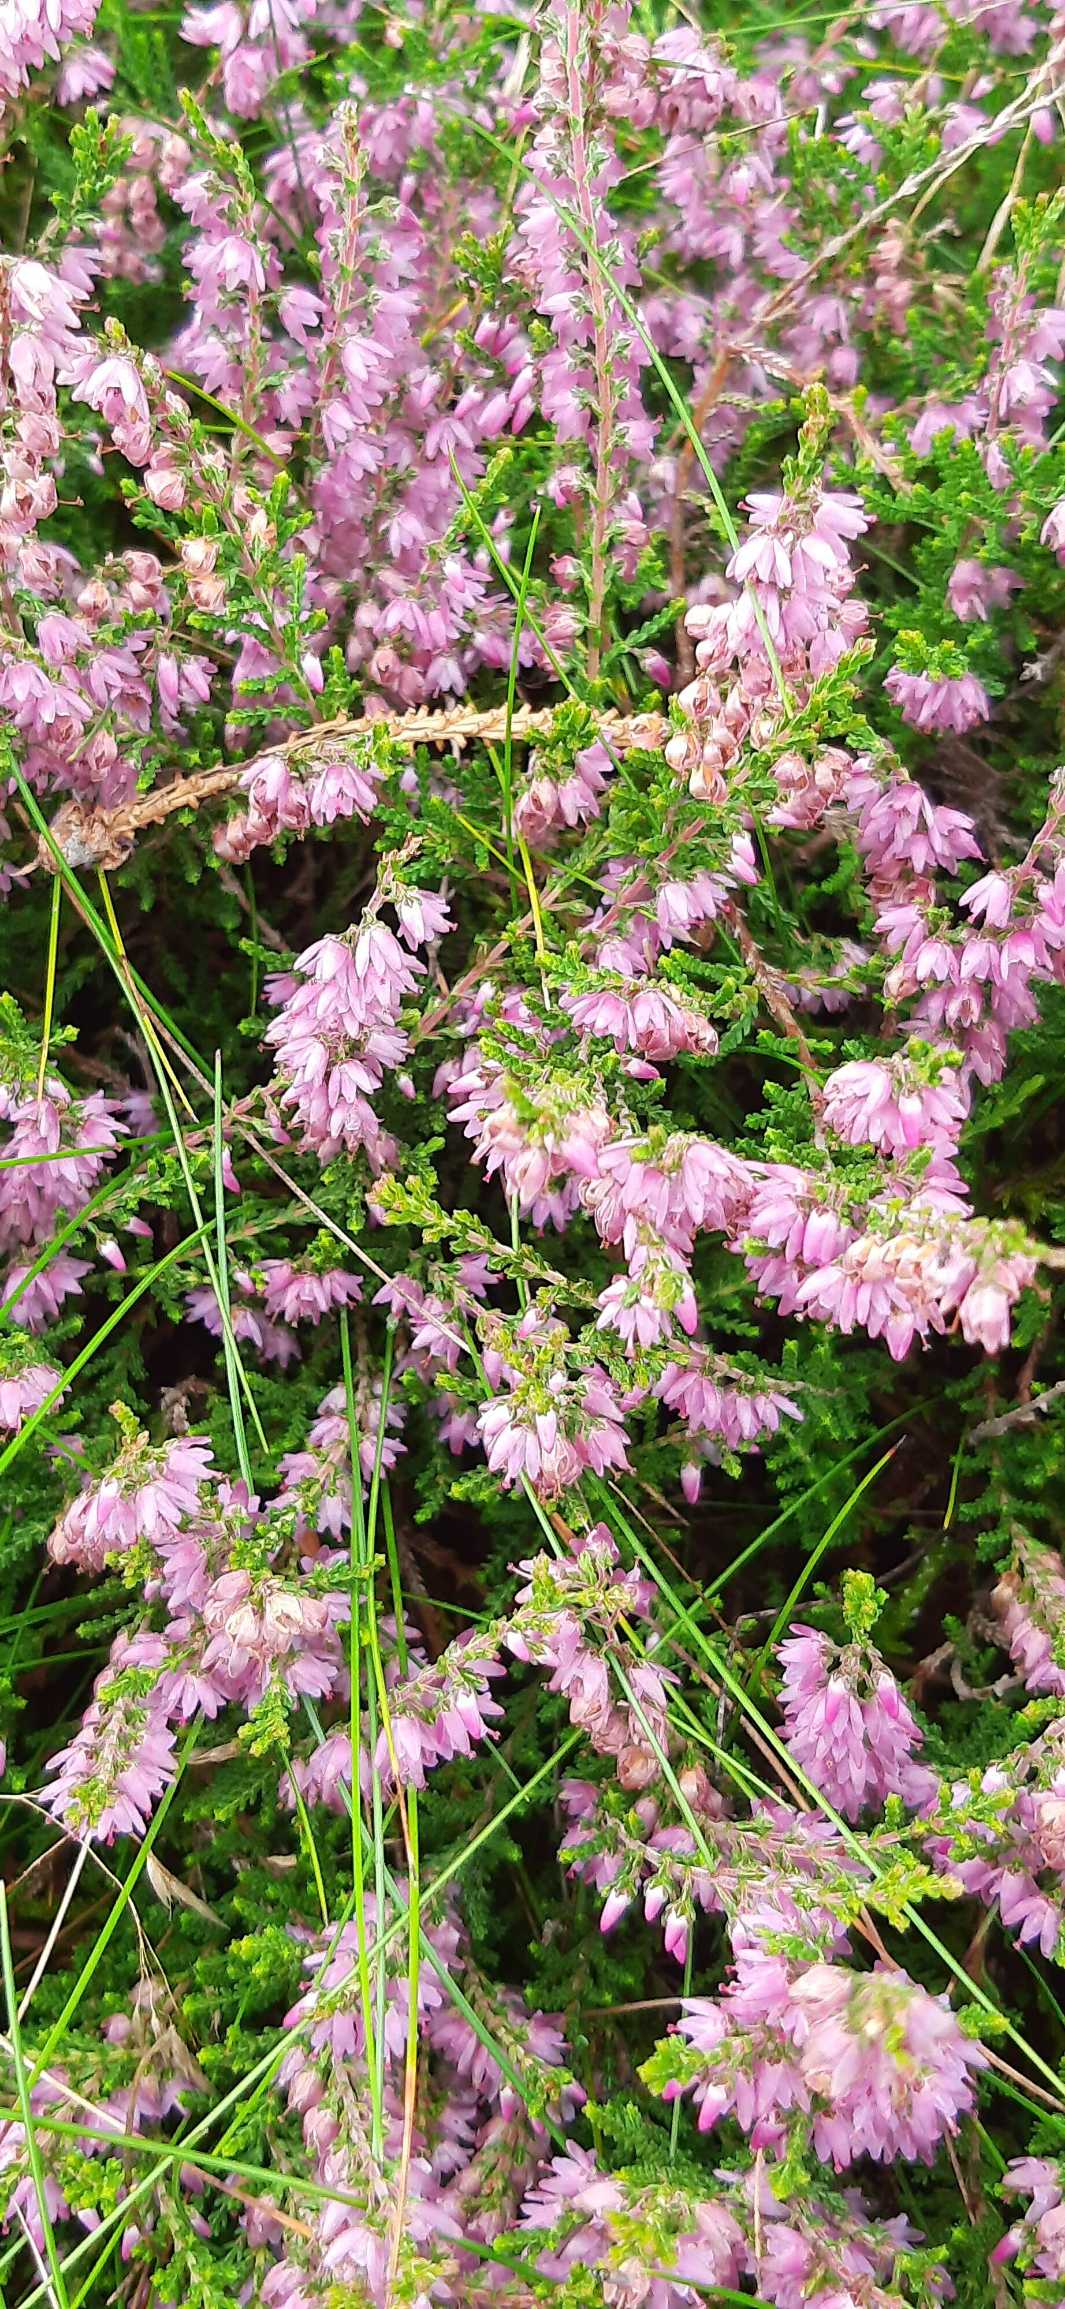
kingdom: Plantae
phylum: Tracheophyta
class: Magnoliopsida
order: Ericales
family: Ericaceae
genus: Calluna
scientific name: Calluna vulgaris
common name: Hedelyng
